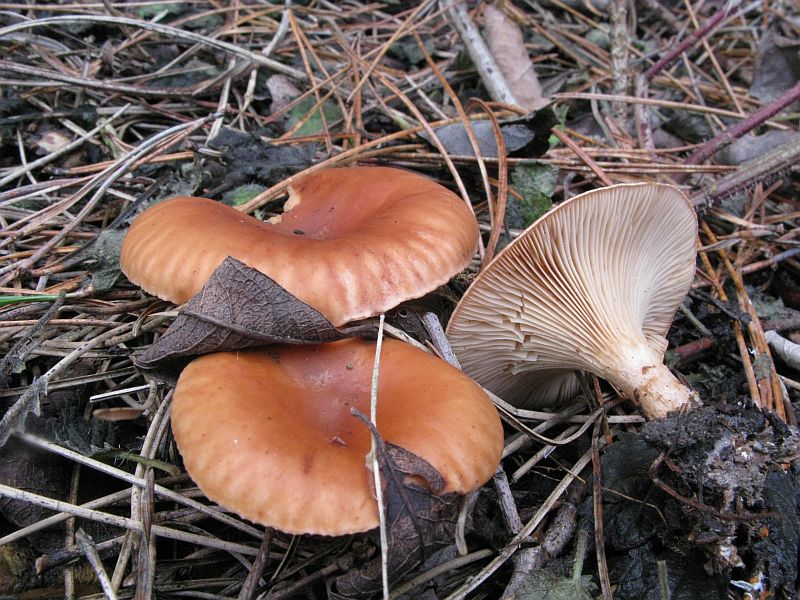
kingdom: Fungi
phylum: Basidiomycota
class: Agaricomycetes
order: Agaricales
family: Tricholomataceae
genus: Paralepista
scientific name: Paralepista flaccida
